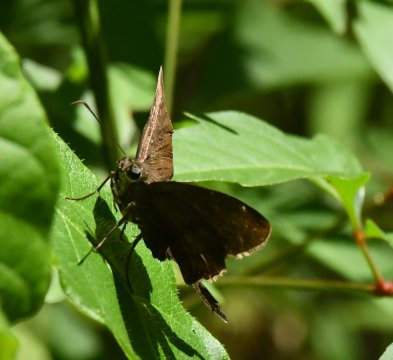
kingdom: Animalia
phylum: Arthropoda
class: Insecta
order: Lepidoptera
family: Hesperiidae
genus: Urbanus
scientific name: Urbanus simplicius
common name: Plain Longtail
